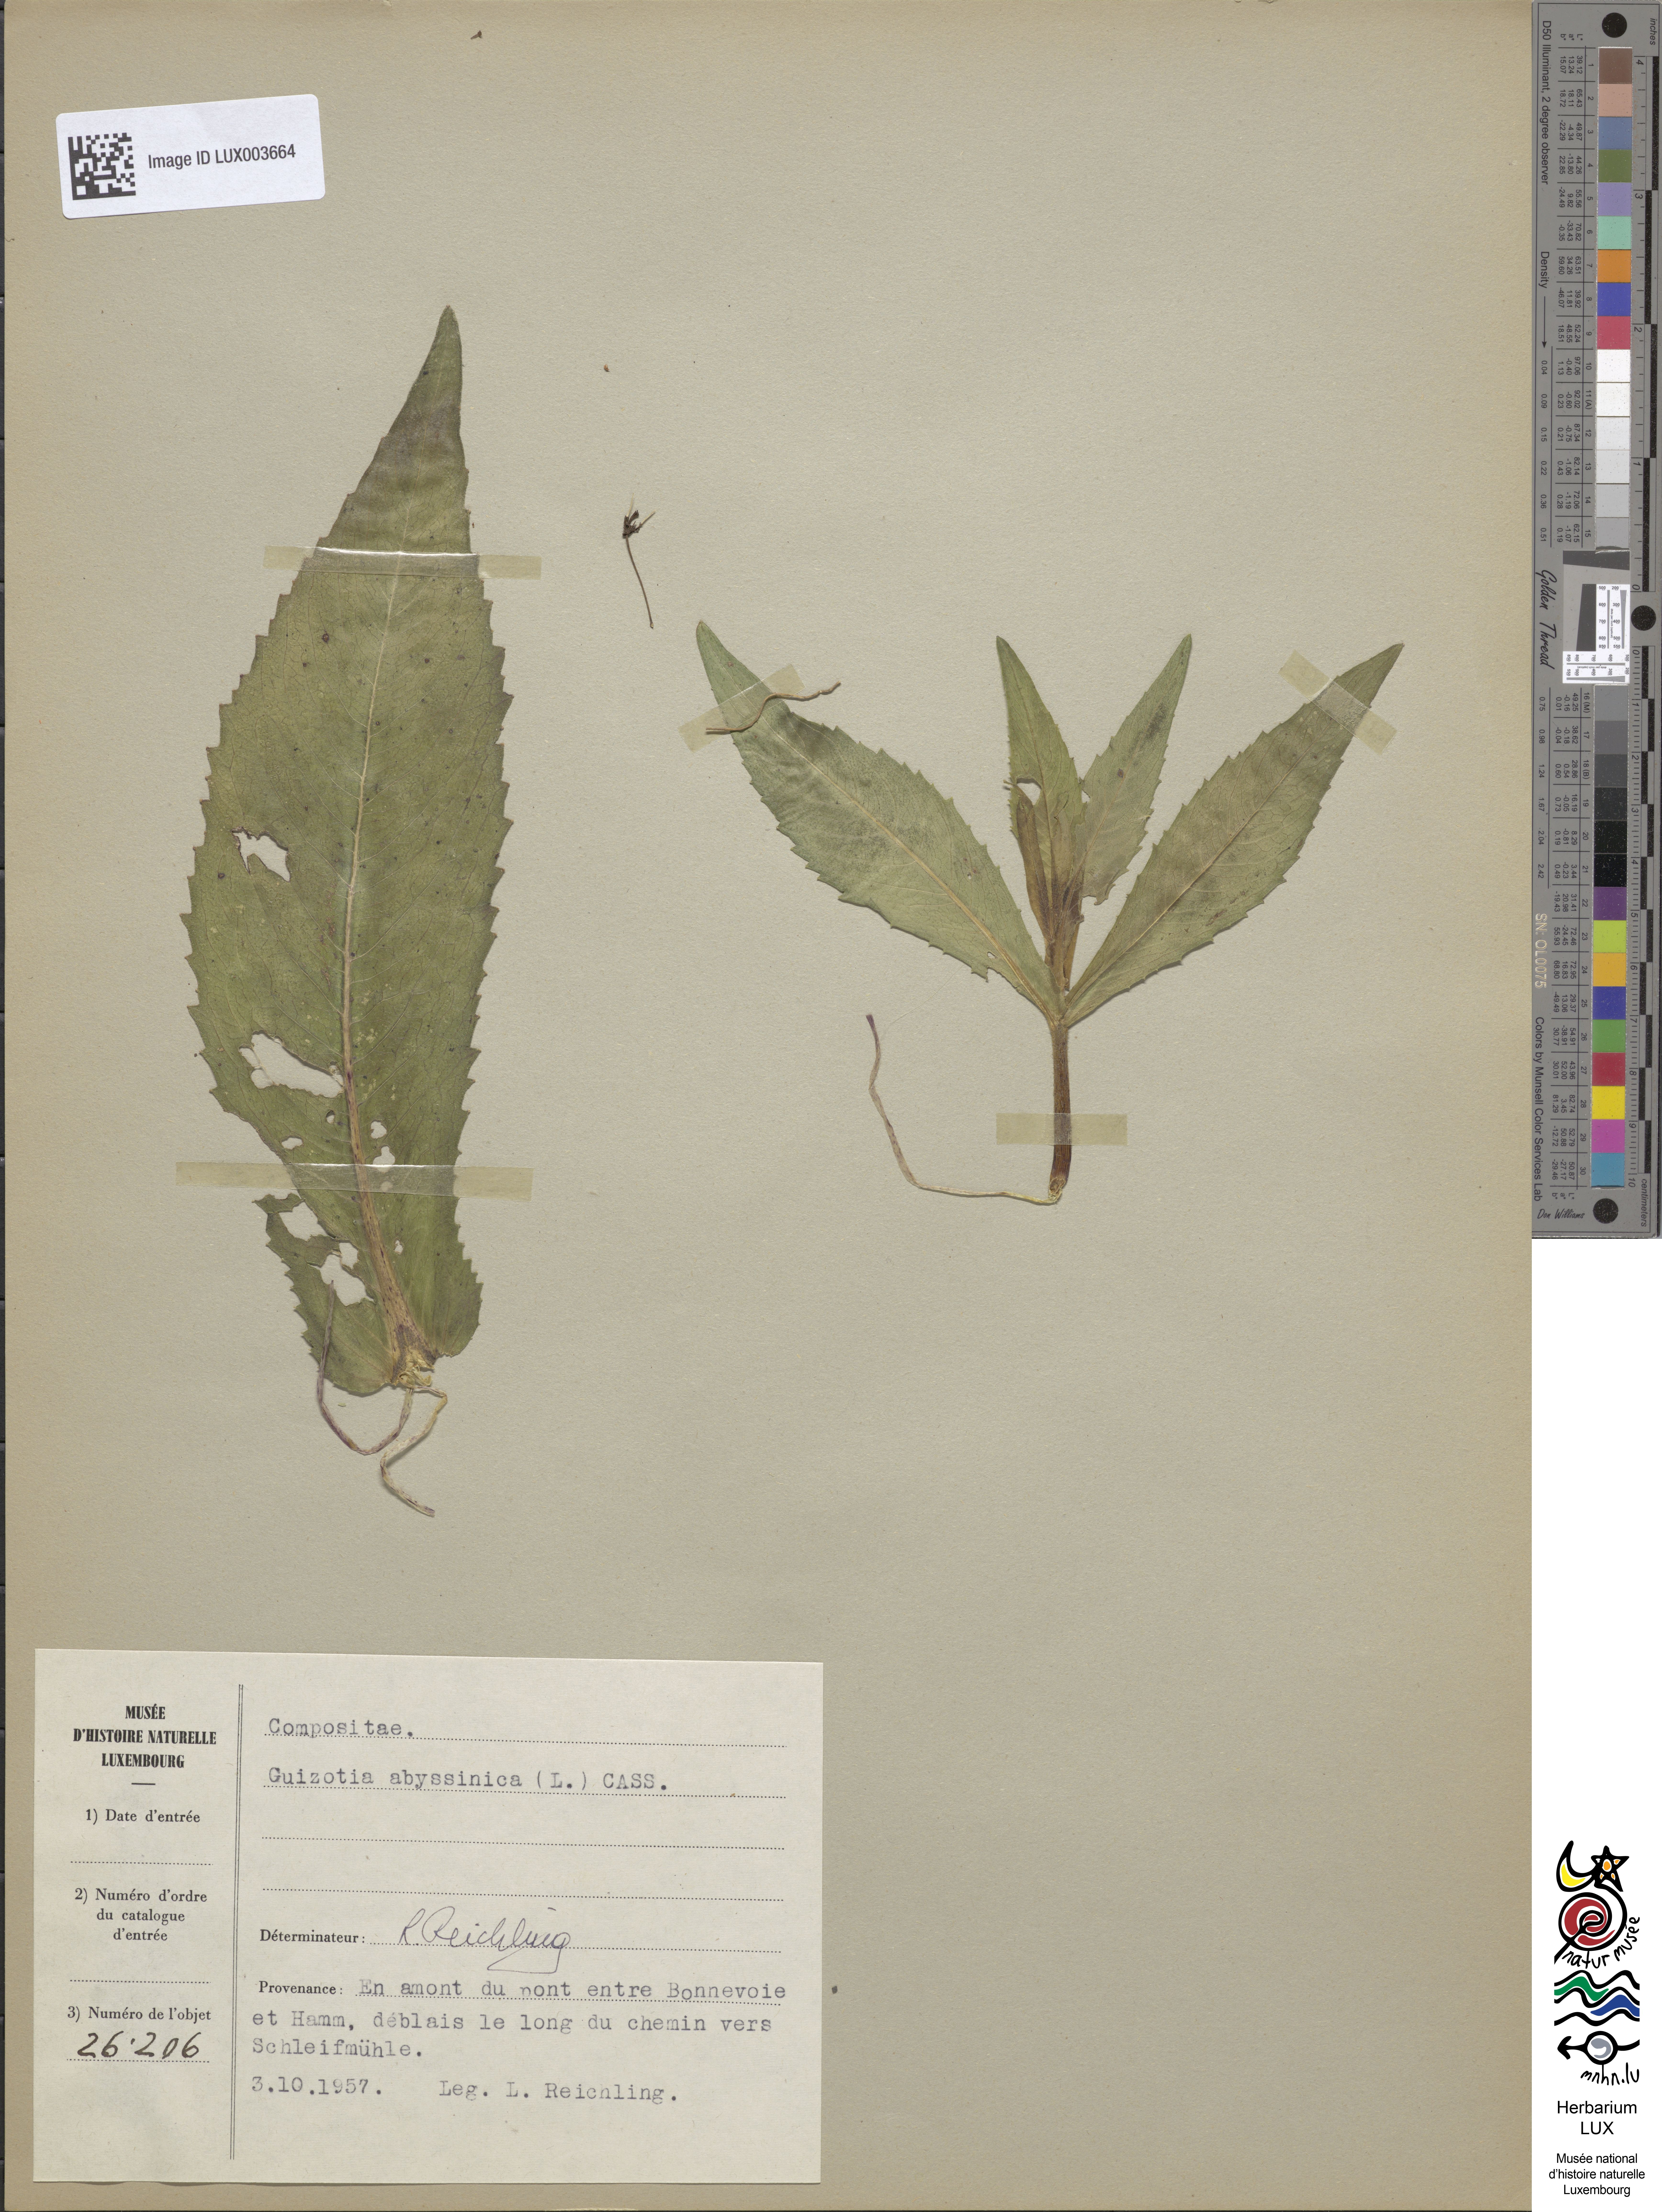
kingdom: Plantae
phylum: Tracheophyta
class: Magnoliopsida
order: Asterales
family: Asteraceae
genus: Guizotia
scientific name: Guizotia abyssinica
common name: Niger
